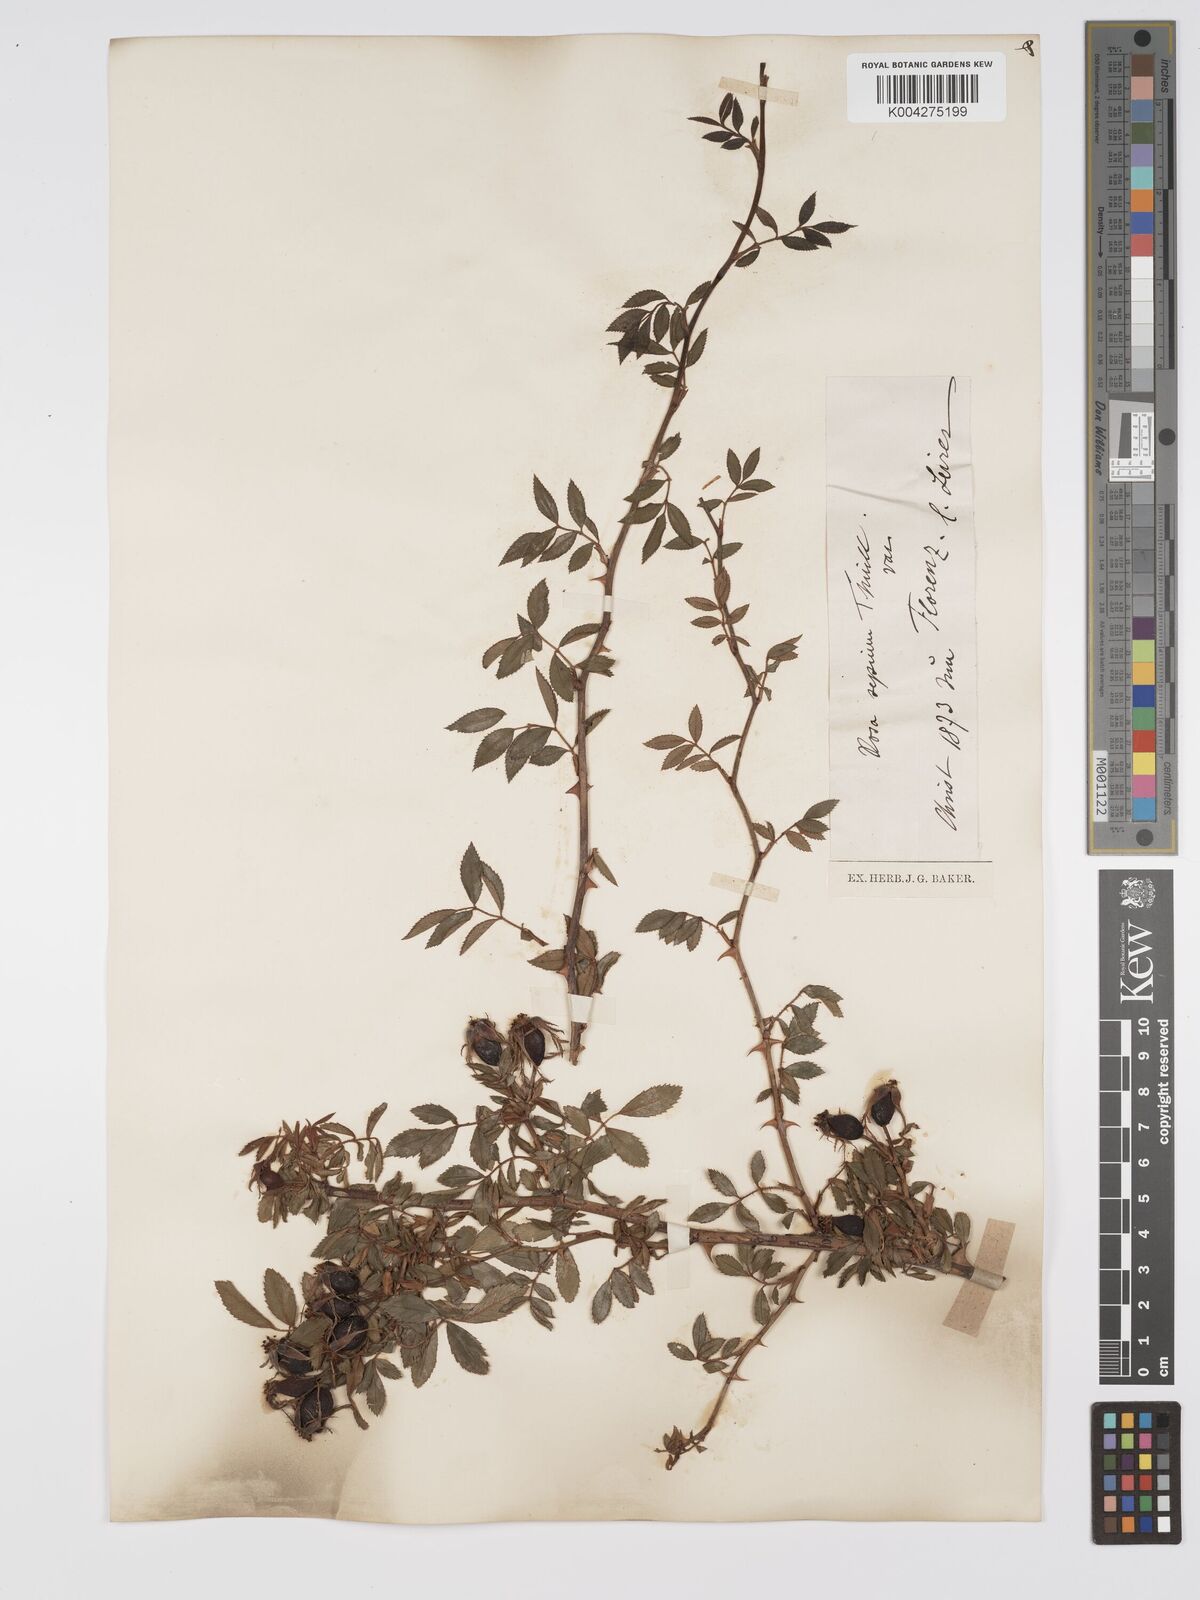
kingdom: Plantae
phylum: Tracheophyta
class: Magnoliopsida
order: Rosales
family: Rosaceae
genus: Rosa
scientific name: Rosa
